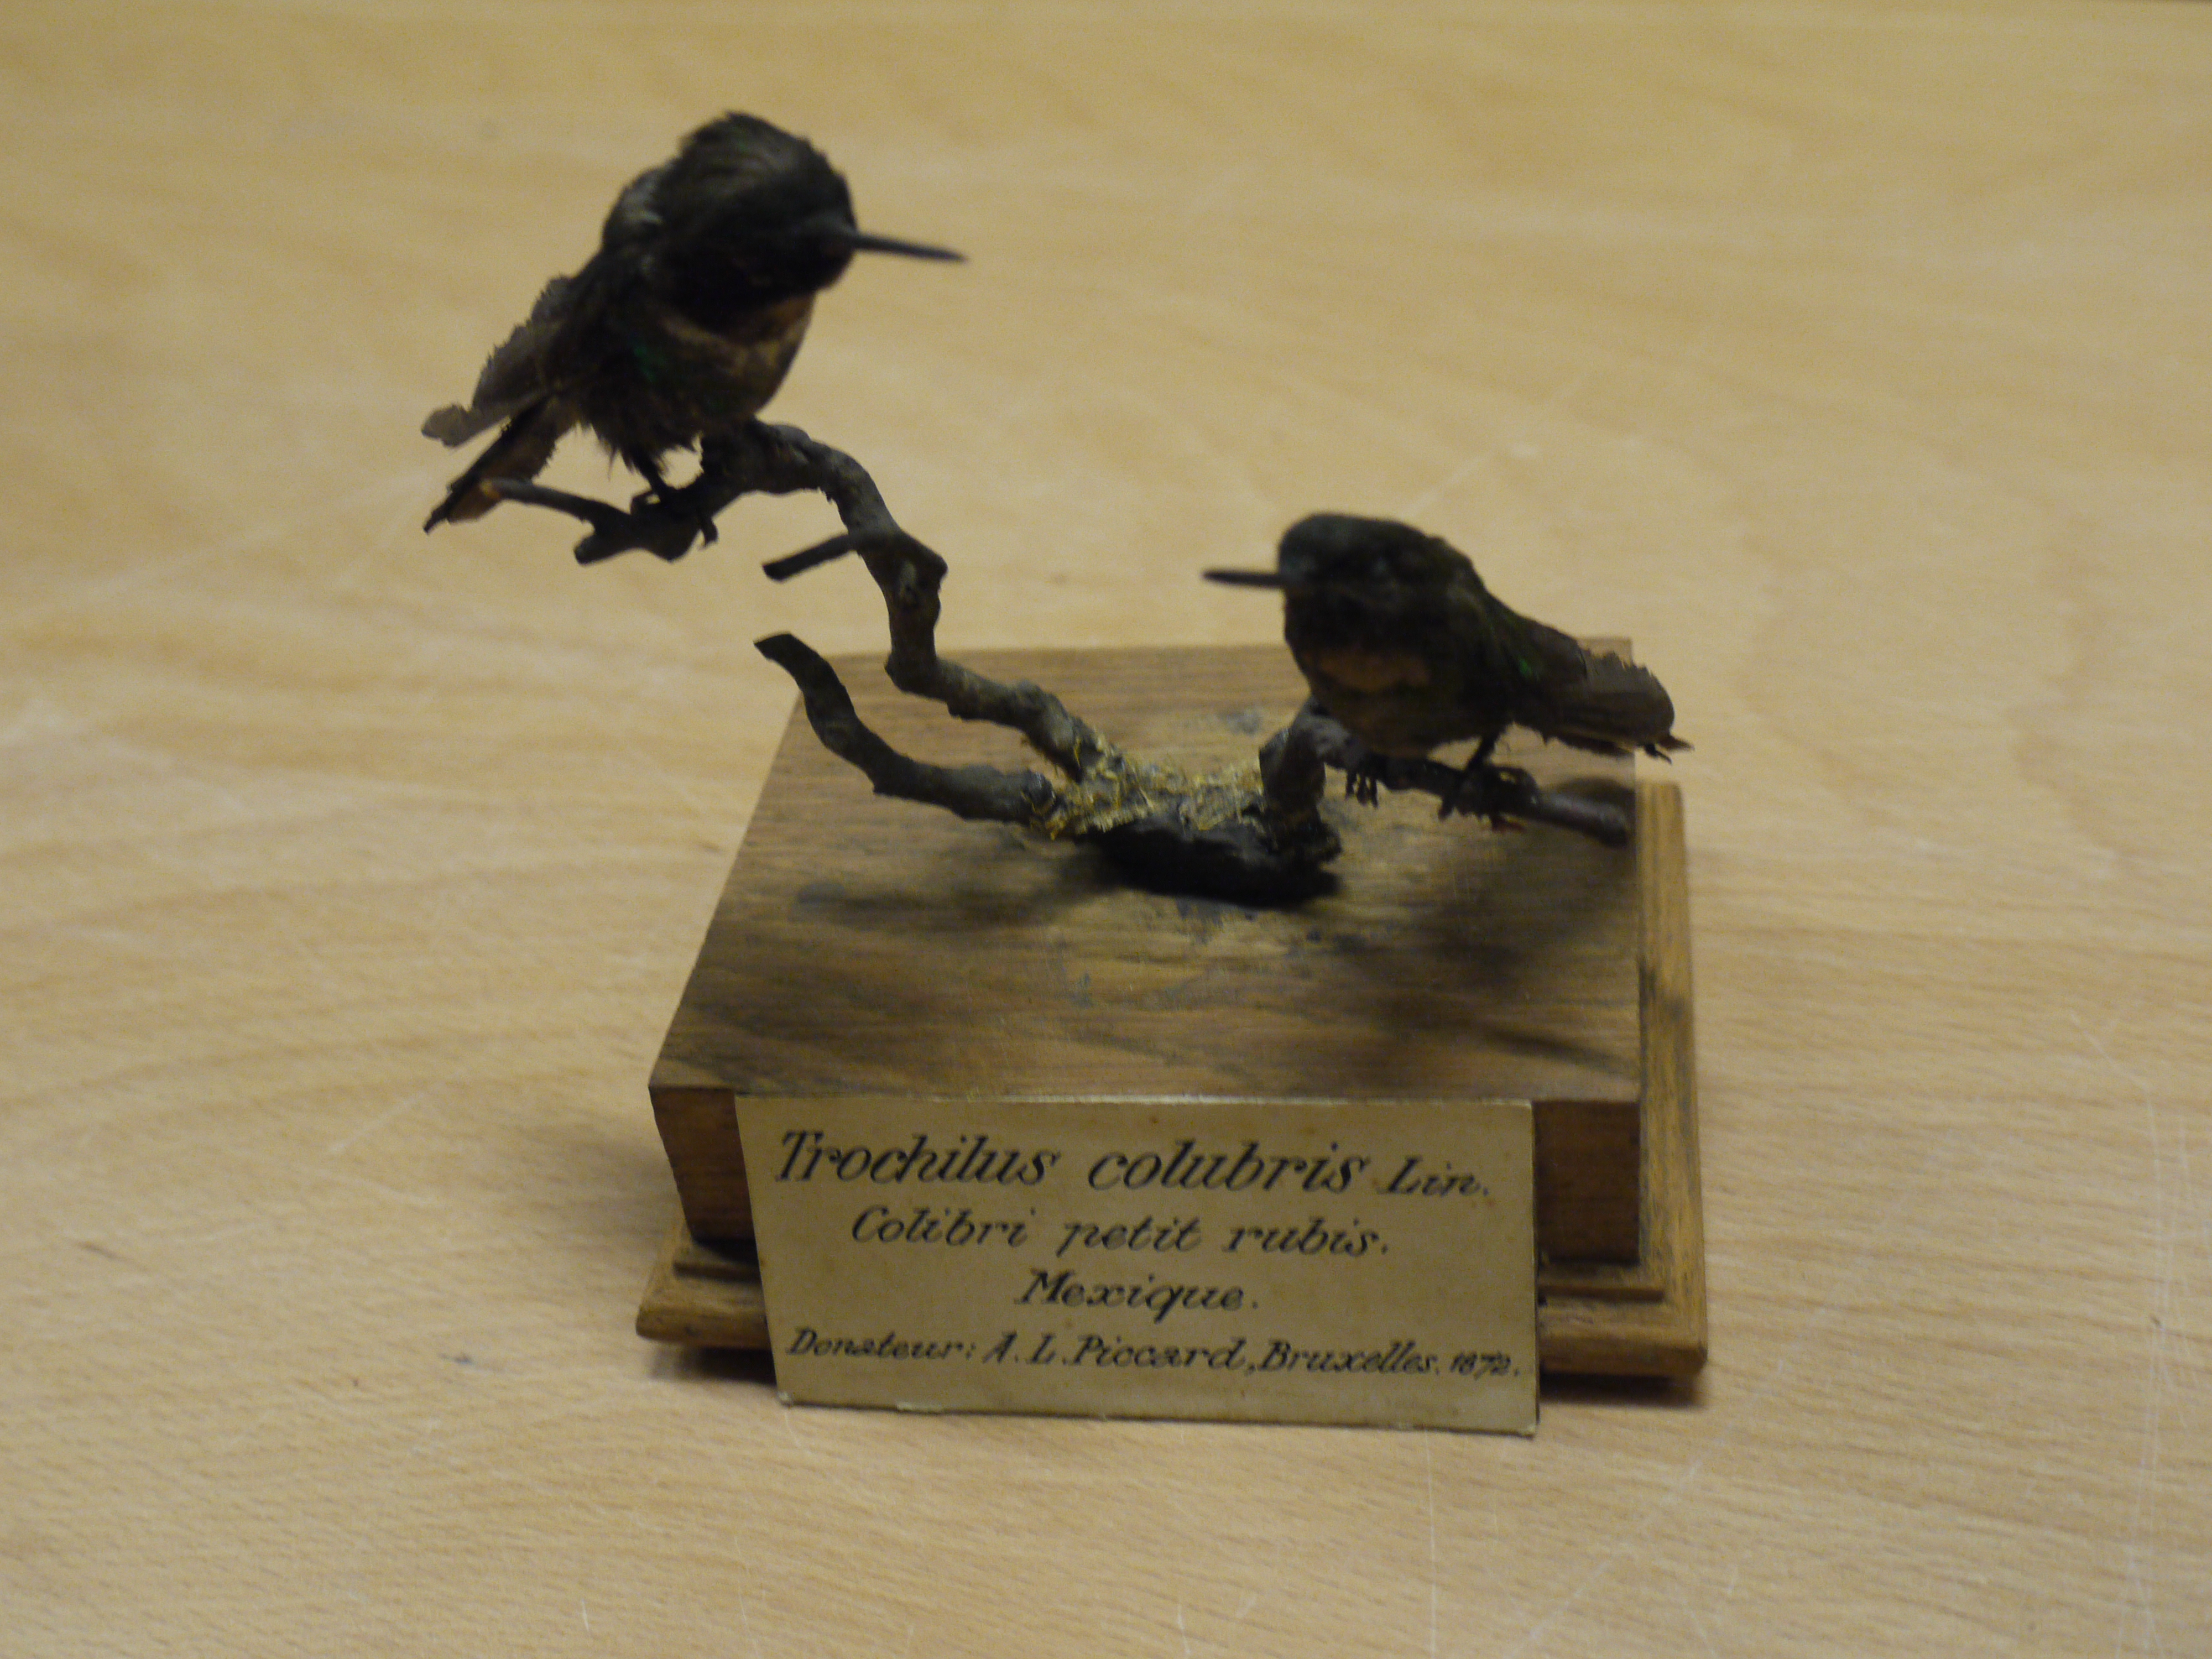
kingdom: Animalia
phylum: Chordata
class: Aves
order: Apodiformes
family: Trochilidae
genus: Archilochus
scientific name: Archilochus colubris
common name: Ruby-throated hummingbird
